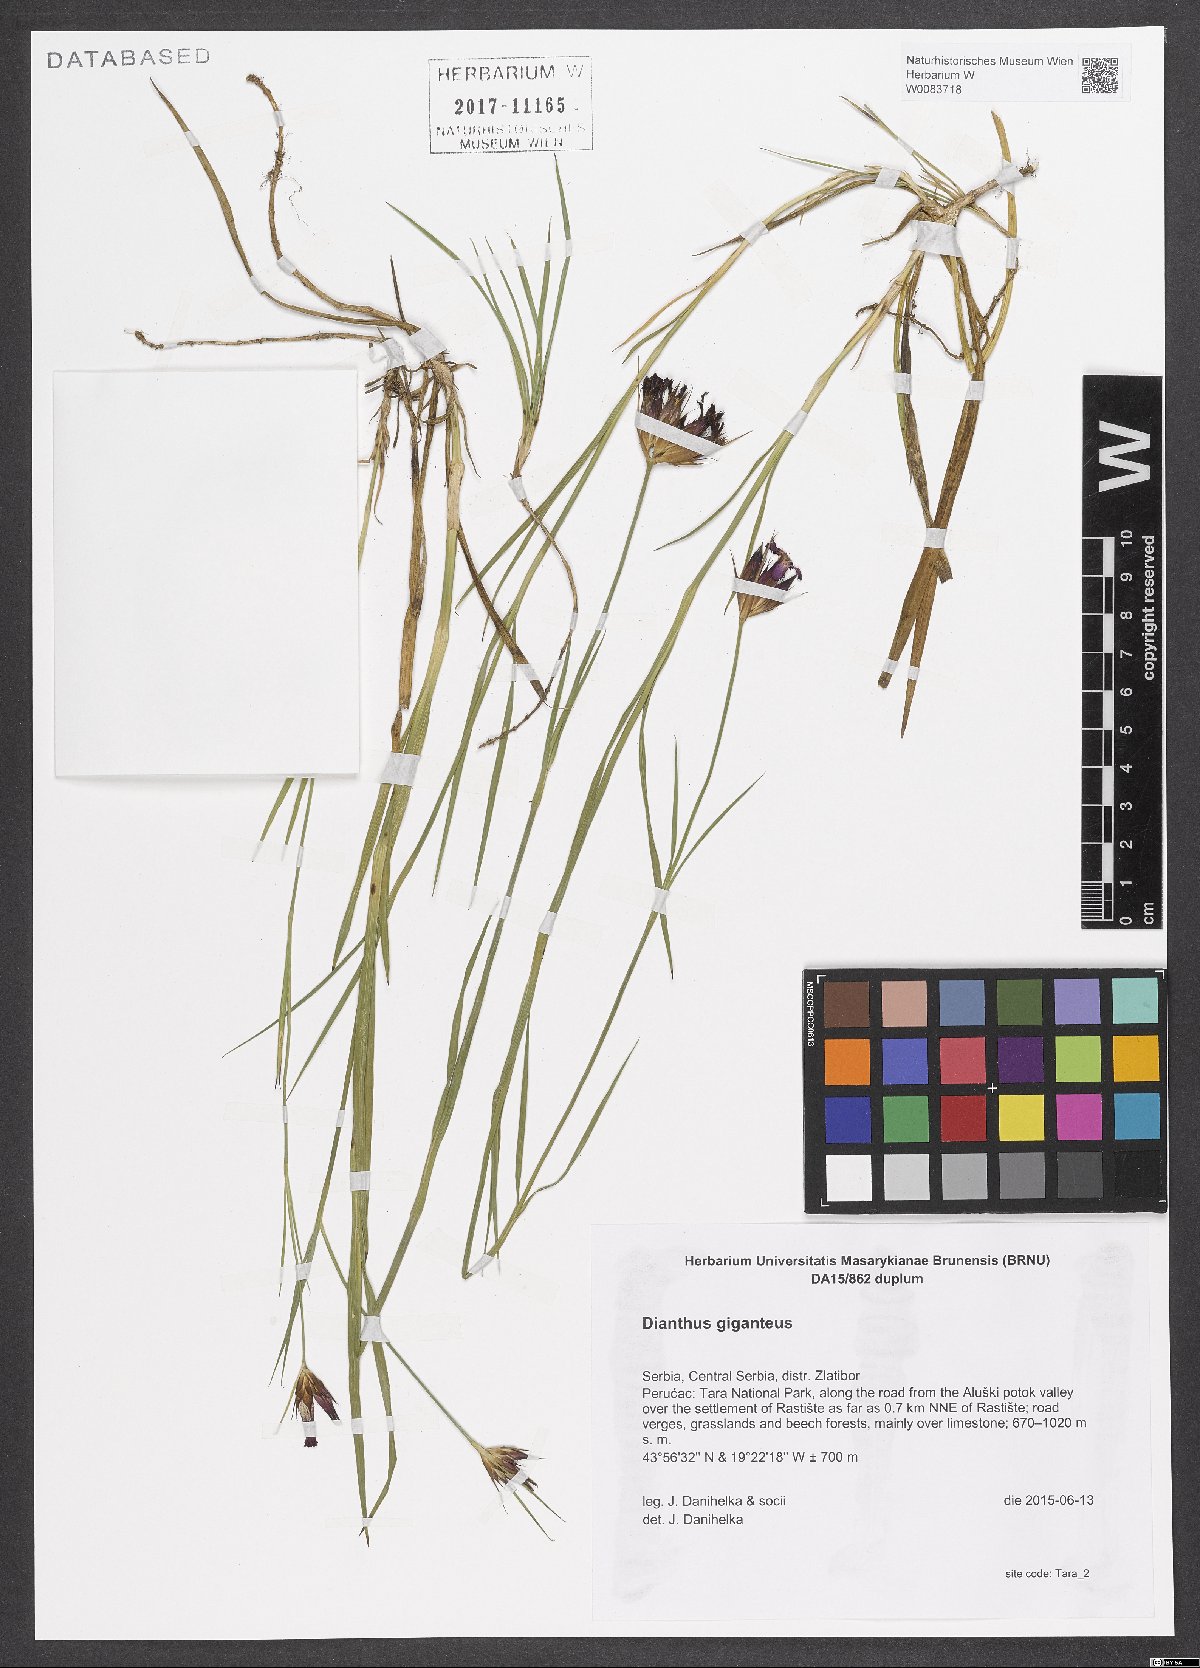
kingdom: Plantae
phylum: Tracheophyta
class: Magnoliopsida
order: Caryophyllales
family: Caryophyllaceae
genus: Dianthus
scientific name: Dianthus giganteus
